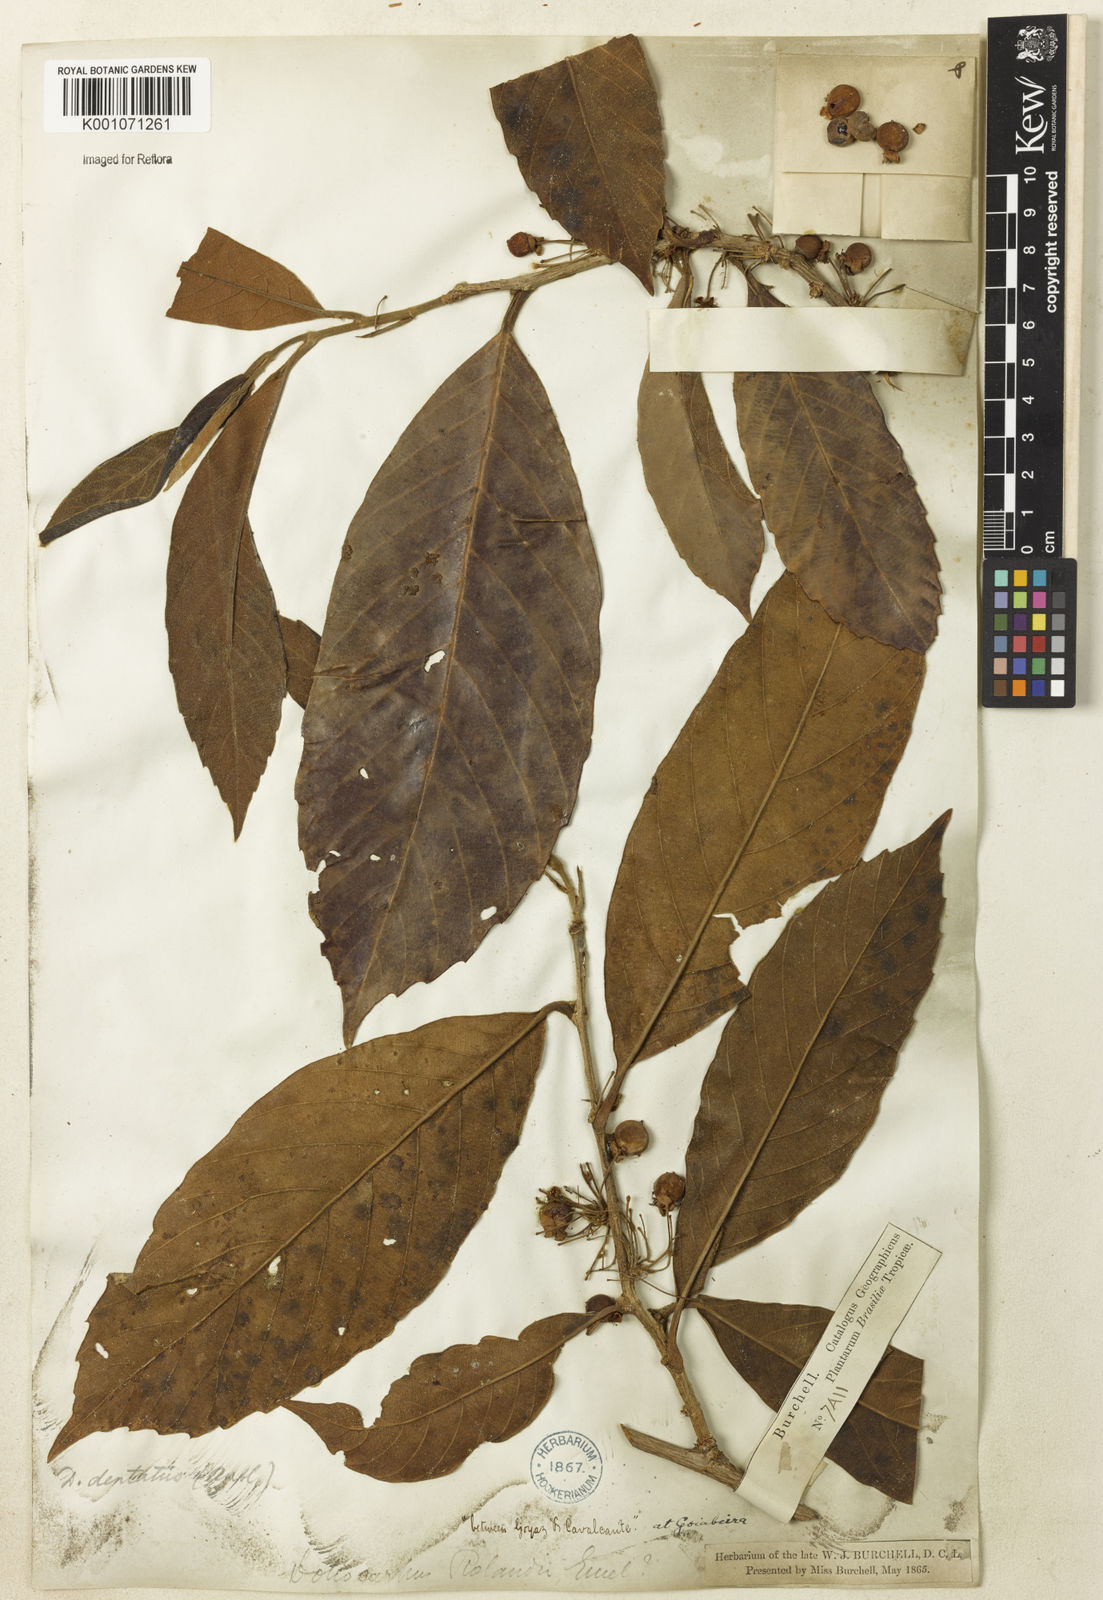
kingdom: Plantae
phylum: Tracheophyta
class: Magnoliopsida
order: Dilleniales
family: Dilleniaceae
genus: Doliocarpus
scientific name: Doliocarpus dentatus
